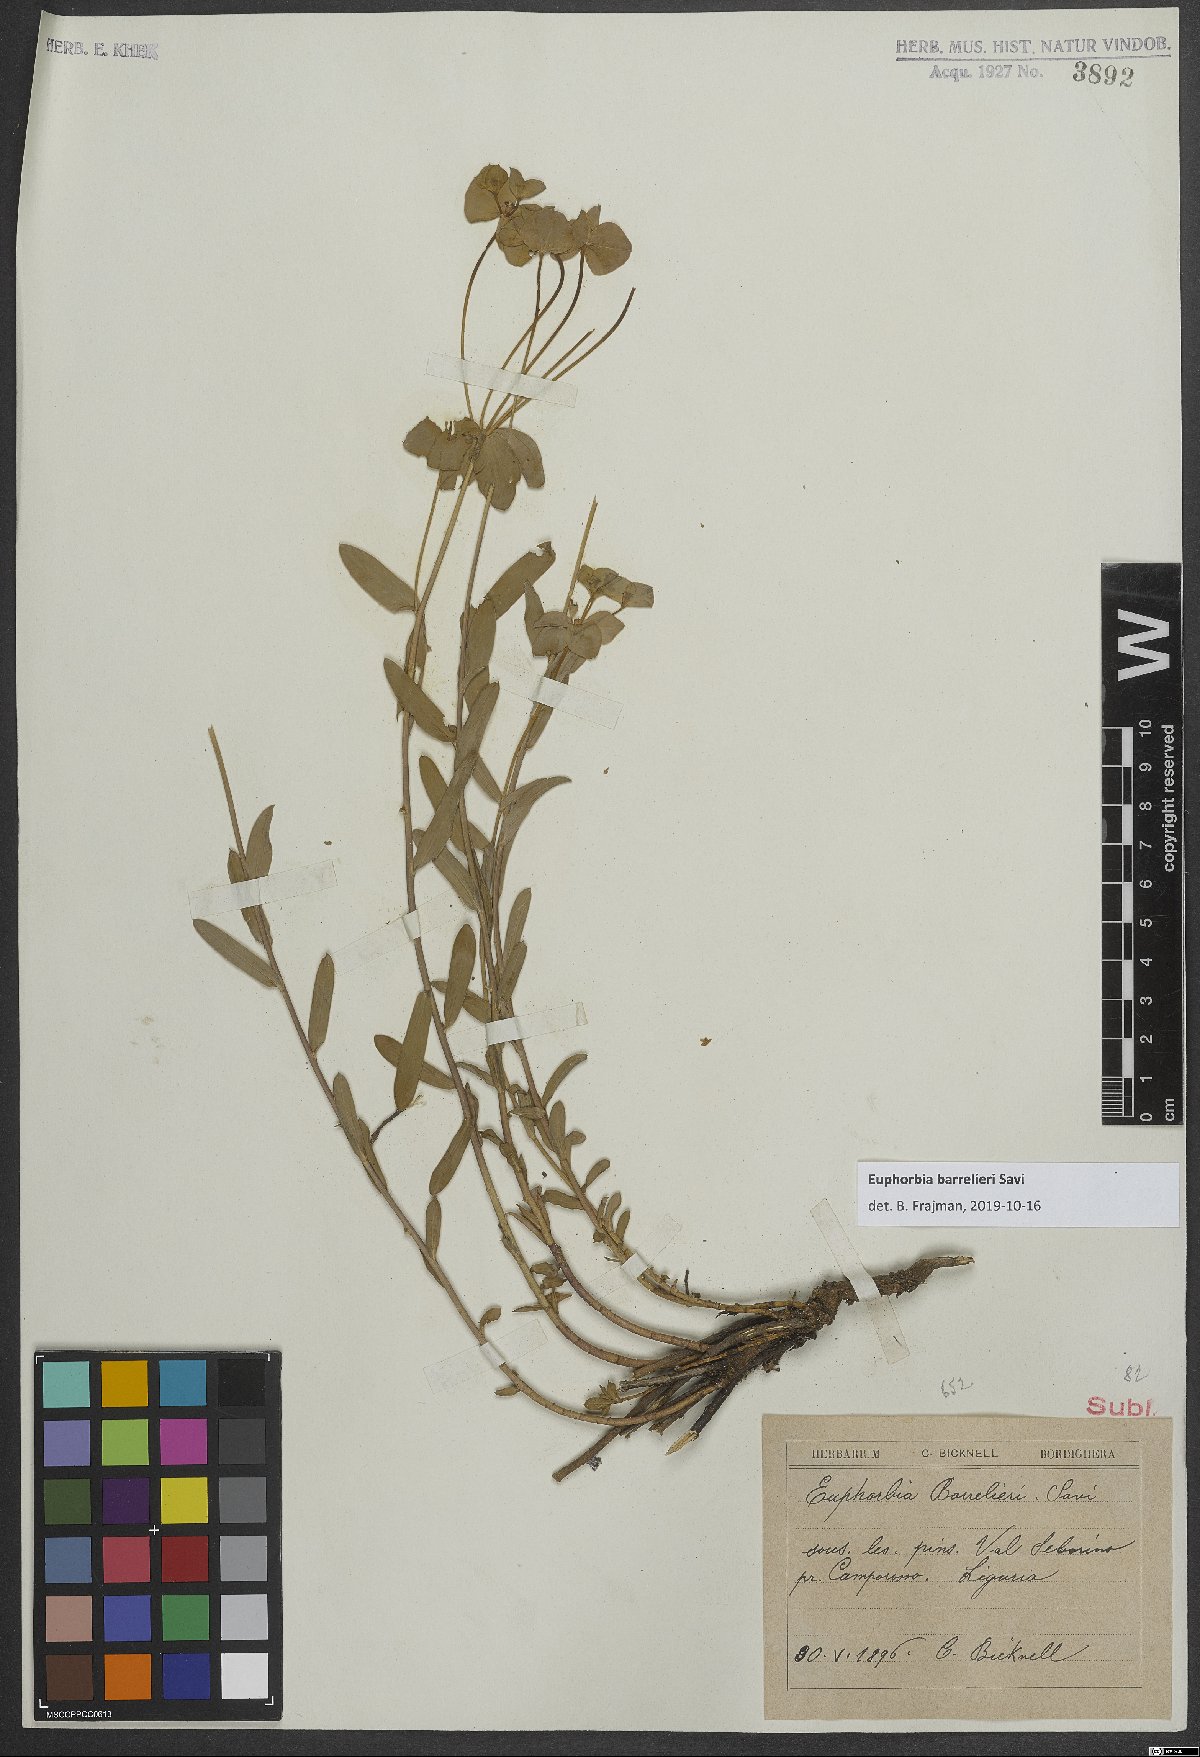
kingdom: Plantae
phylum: Tracheophyta
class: Magnoliopsida
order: Malpighiales
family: Euphorbiaceae
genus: Euphorbia
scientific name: Euphorbia
